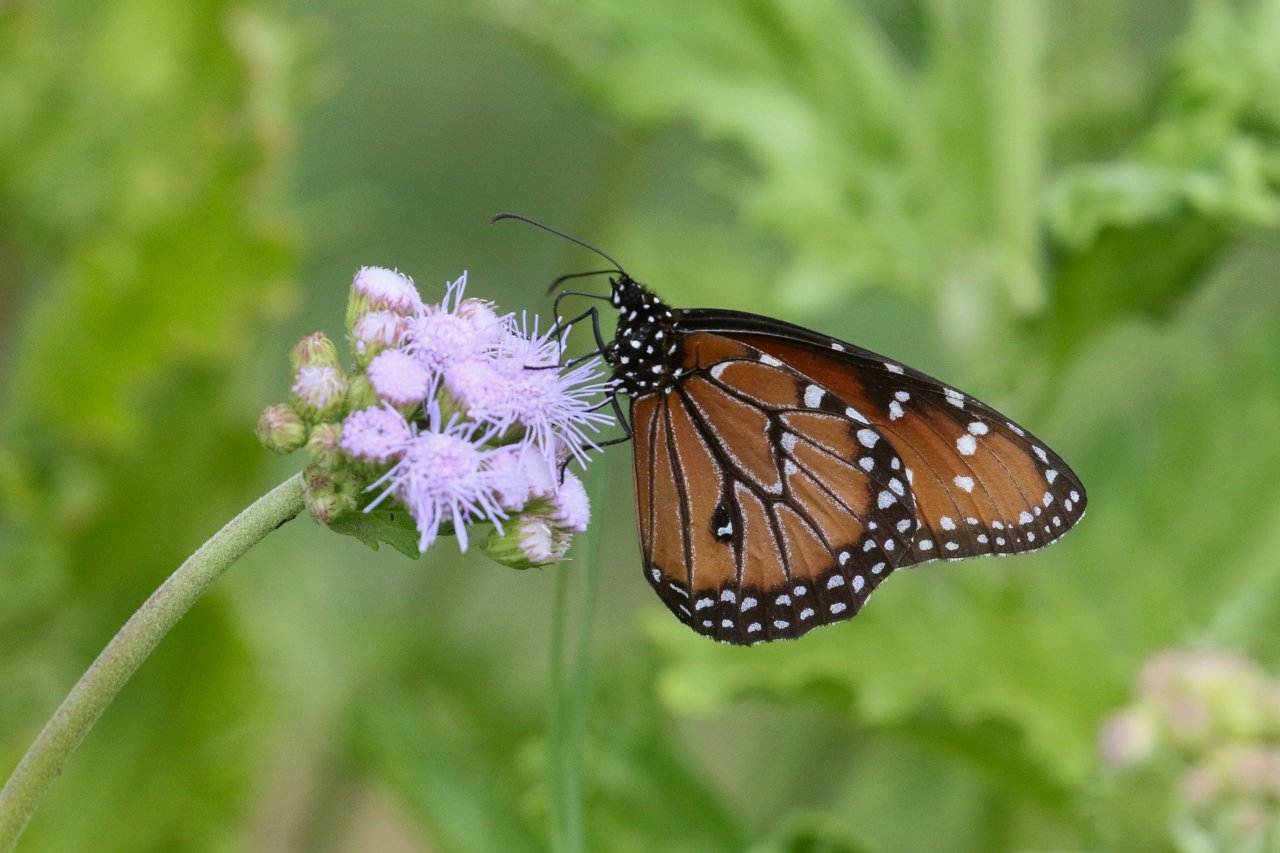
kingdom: Animalia
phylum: Arthropoda
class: Insecta
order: Lepidoptera
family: Nymphalidae
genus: Danaus
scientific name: Danaus gilippus
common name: Queen
